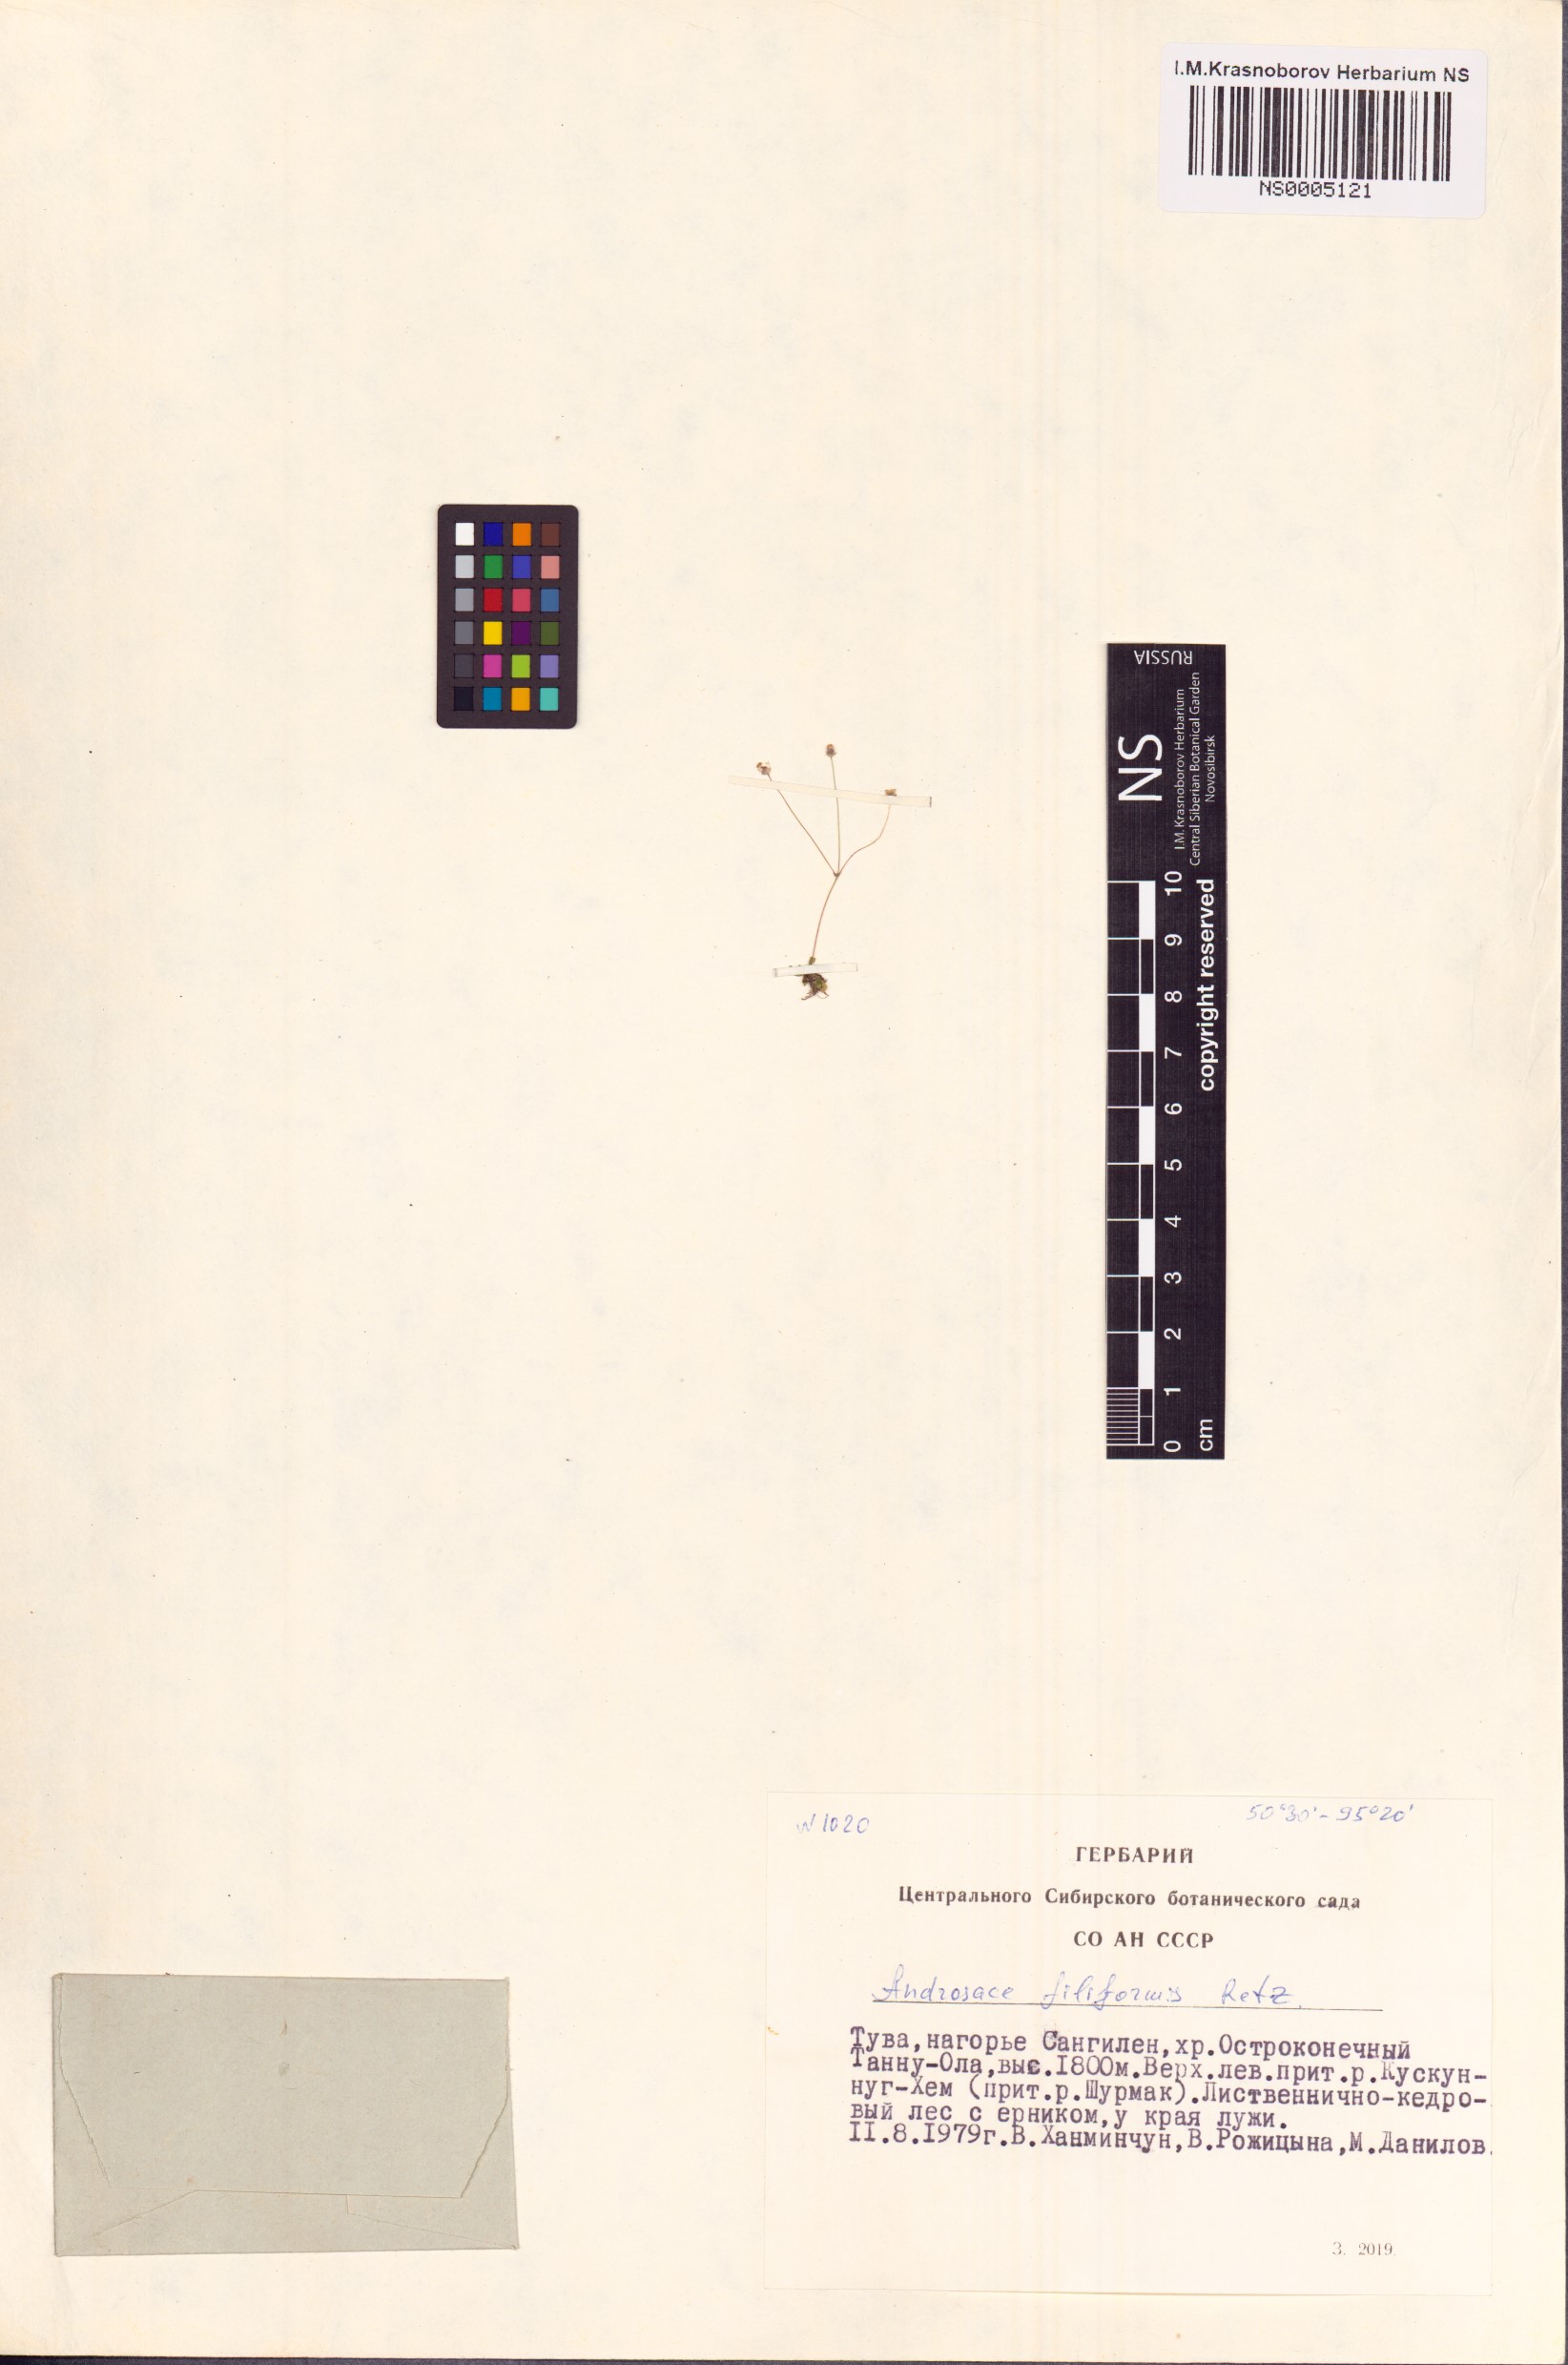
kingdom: Plantae
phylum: Tracheophyta
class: Magnoliopsida
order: Ericales
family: Primulaceae
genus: Androsace
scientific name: Androsace filiformis
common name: Filiform rock jasmine
